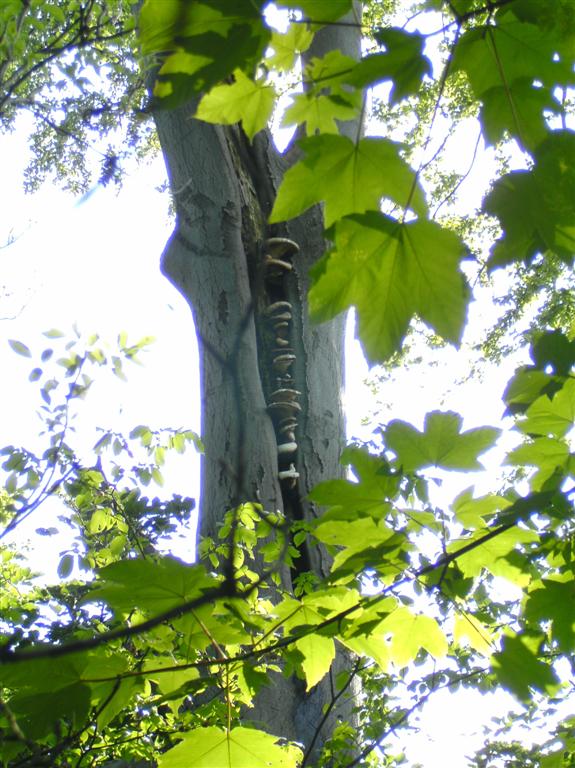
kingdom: Fungi
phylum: Basidiomycota
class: Agaricomycetes
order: Polyporales
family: Polyporaceae
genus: Cerioporus
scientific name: Cerioporus squamosus
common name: skællet stilkporesvamp
